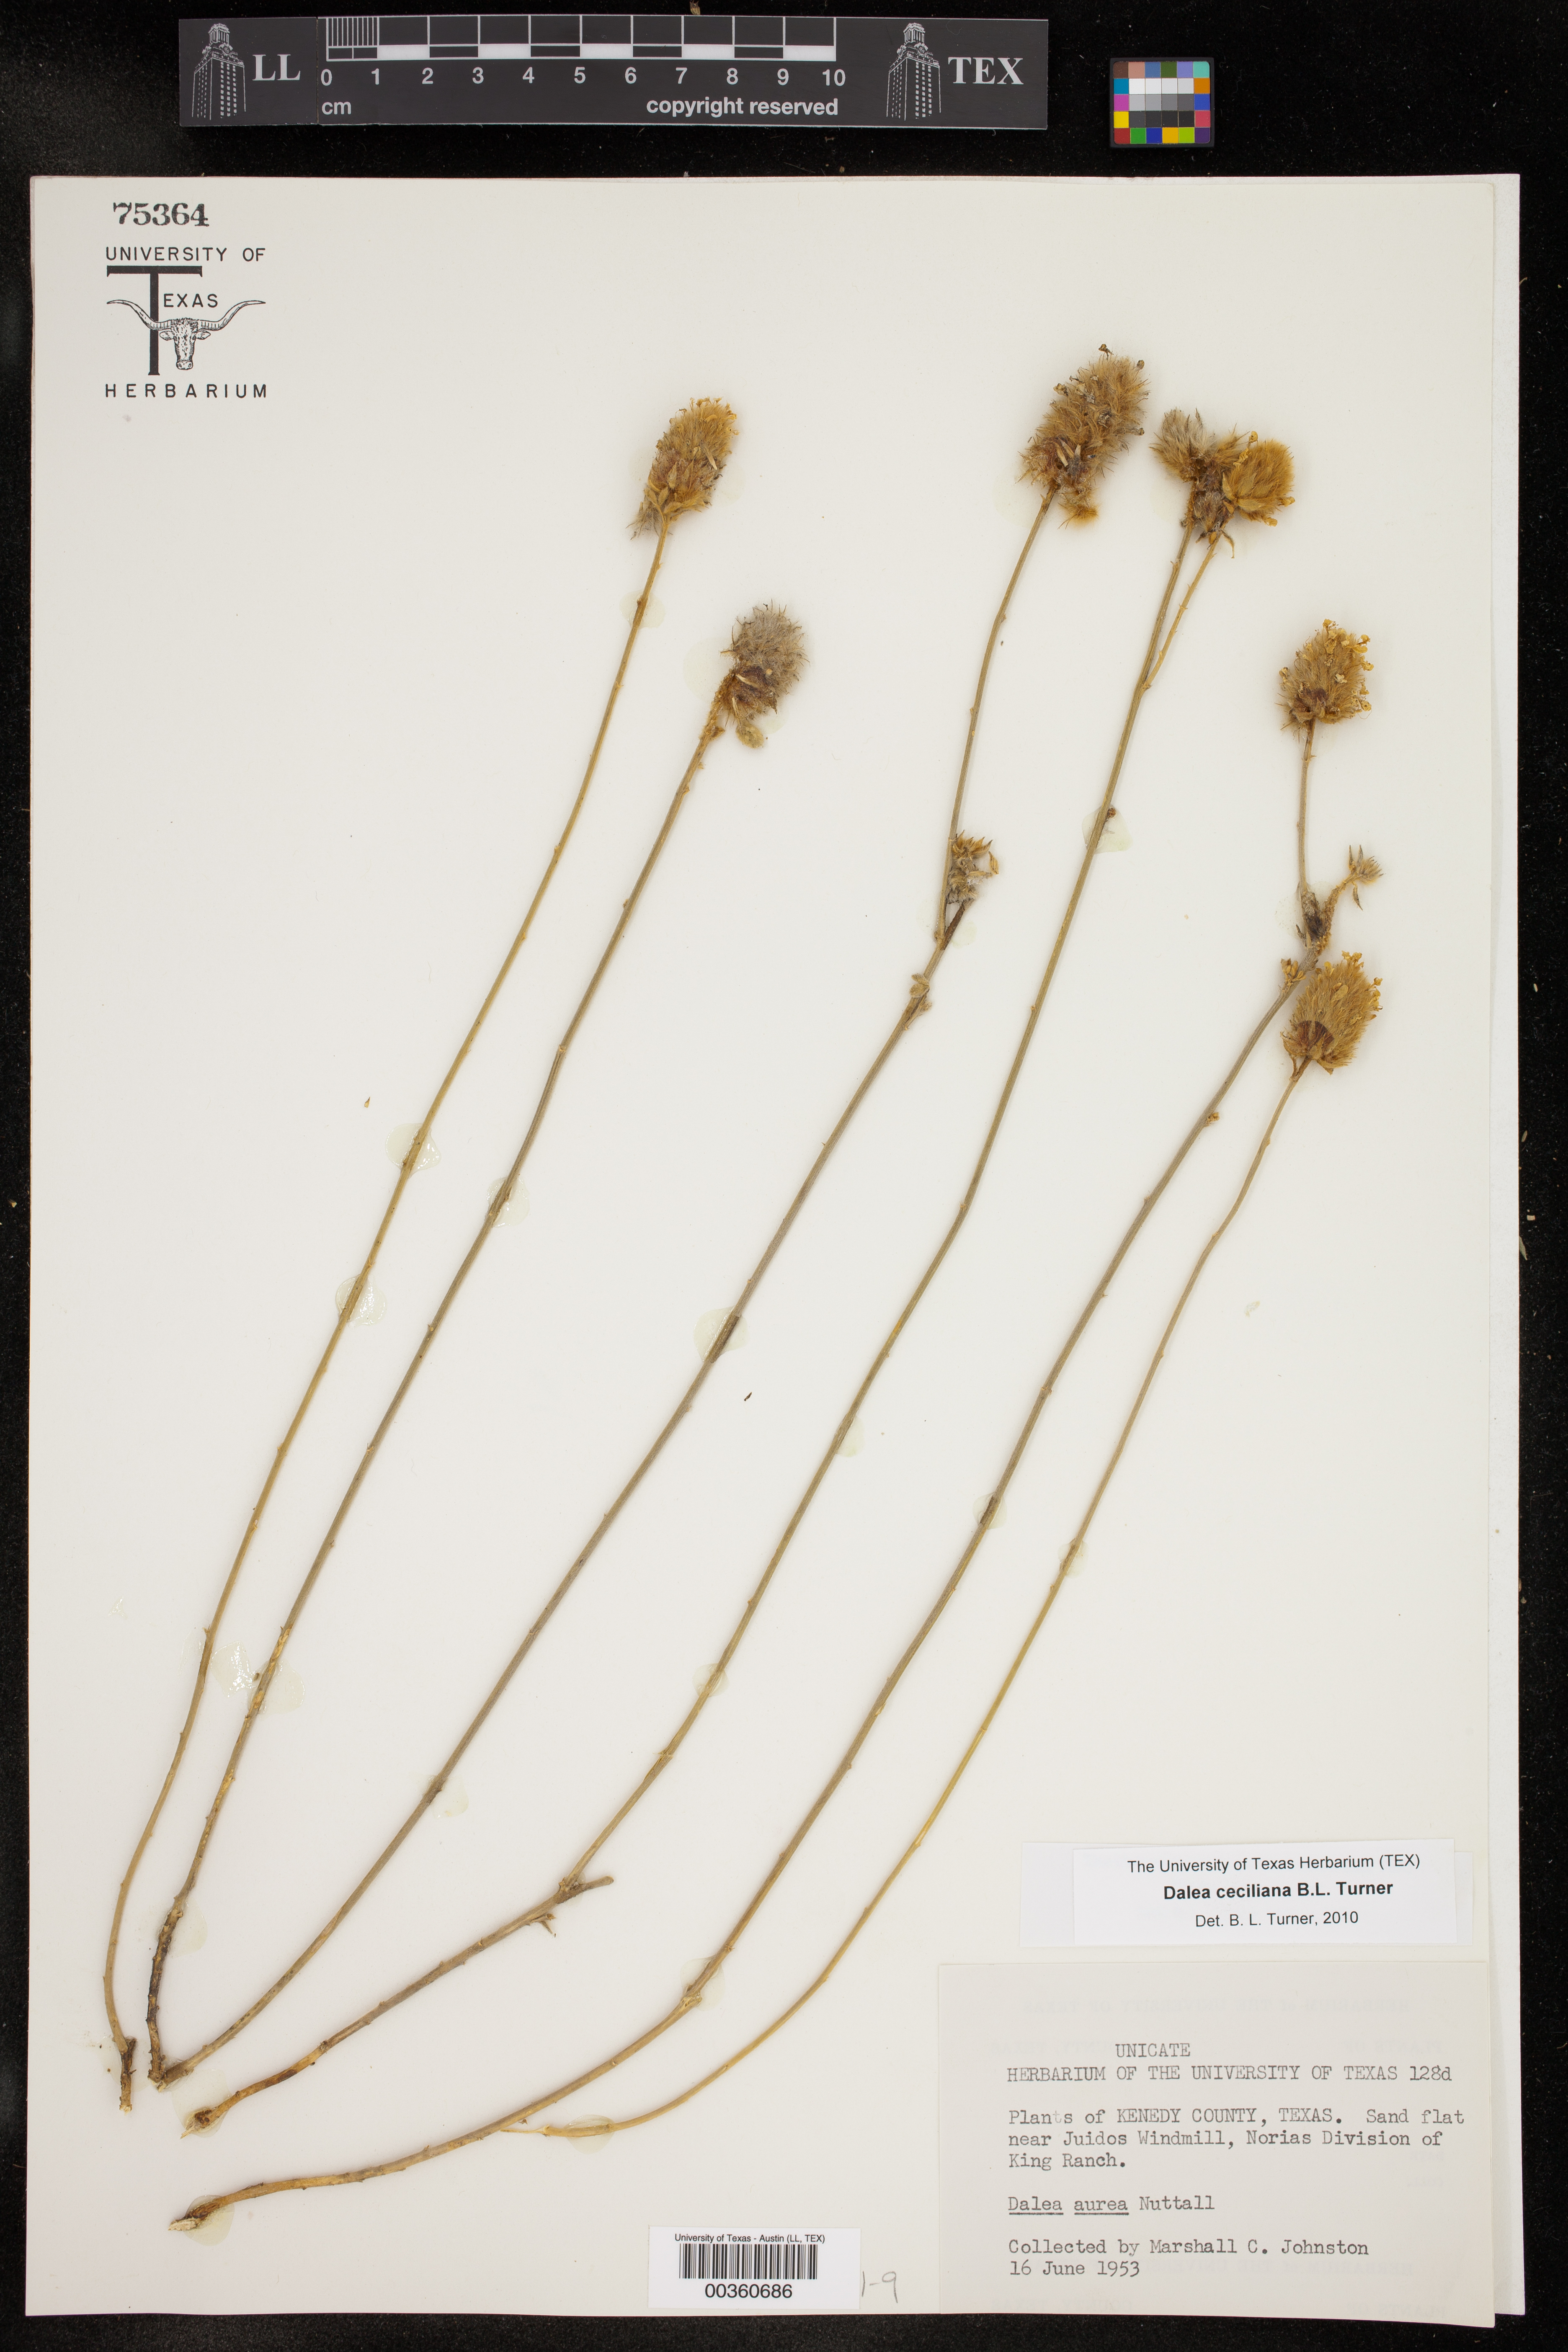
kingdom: Plantae
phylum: Tracheophyta
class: Magnoliopsida
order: Fabales
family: Fabaceae
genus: Dalea
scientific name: Dalea ceciliana
